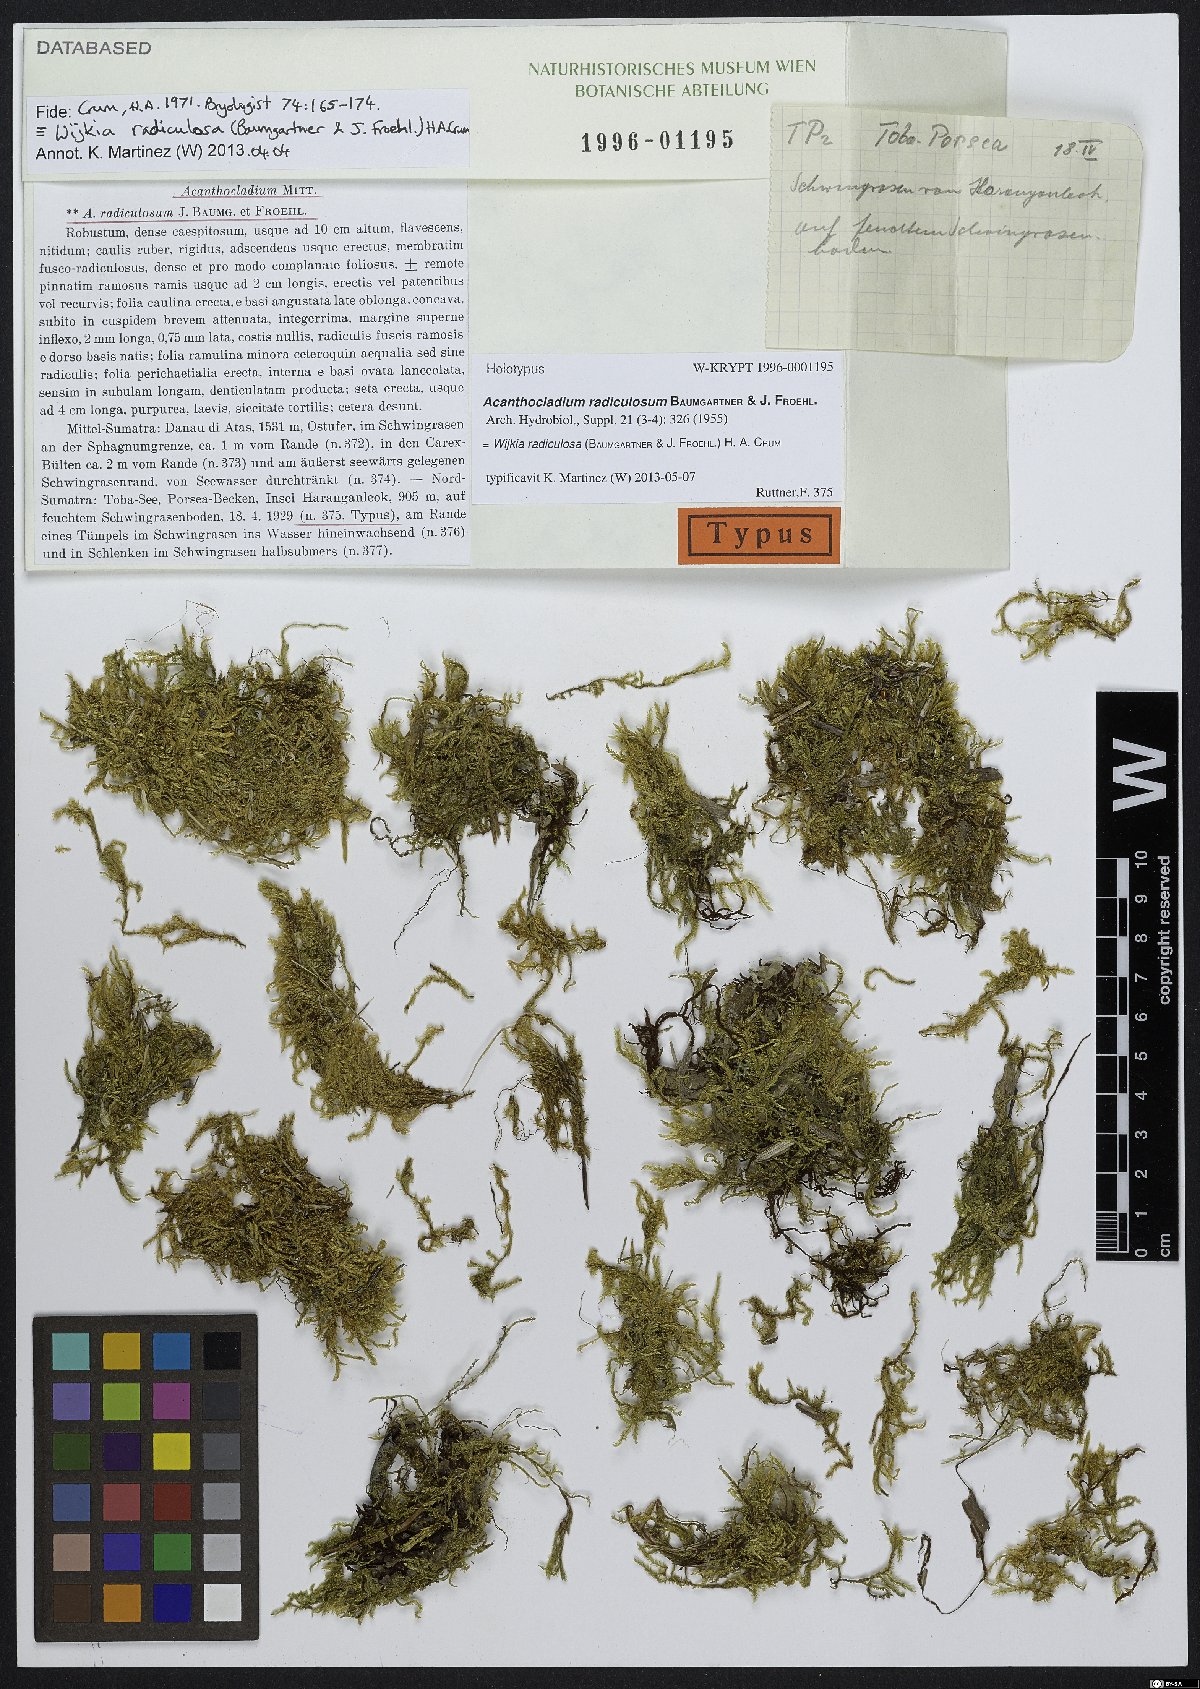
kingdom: Plantae
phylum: Bryophyta
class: Bryopsida
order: Hypnales
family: Pylaisiadelphaceae
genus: Wijkia
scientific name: Wijkia radiculosa
